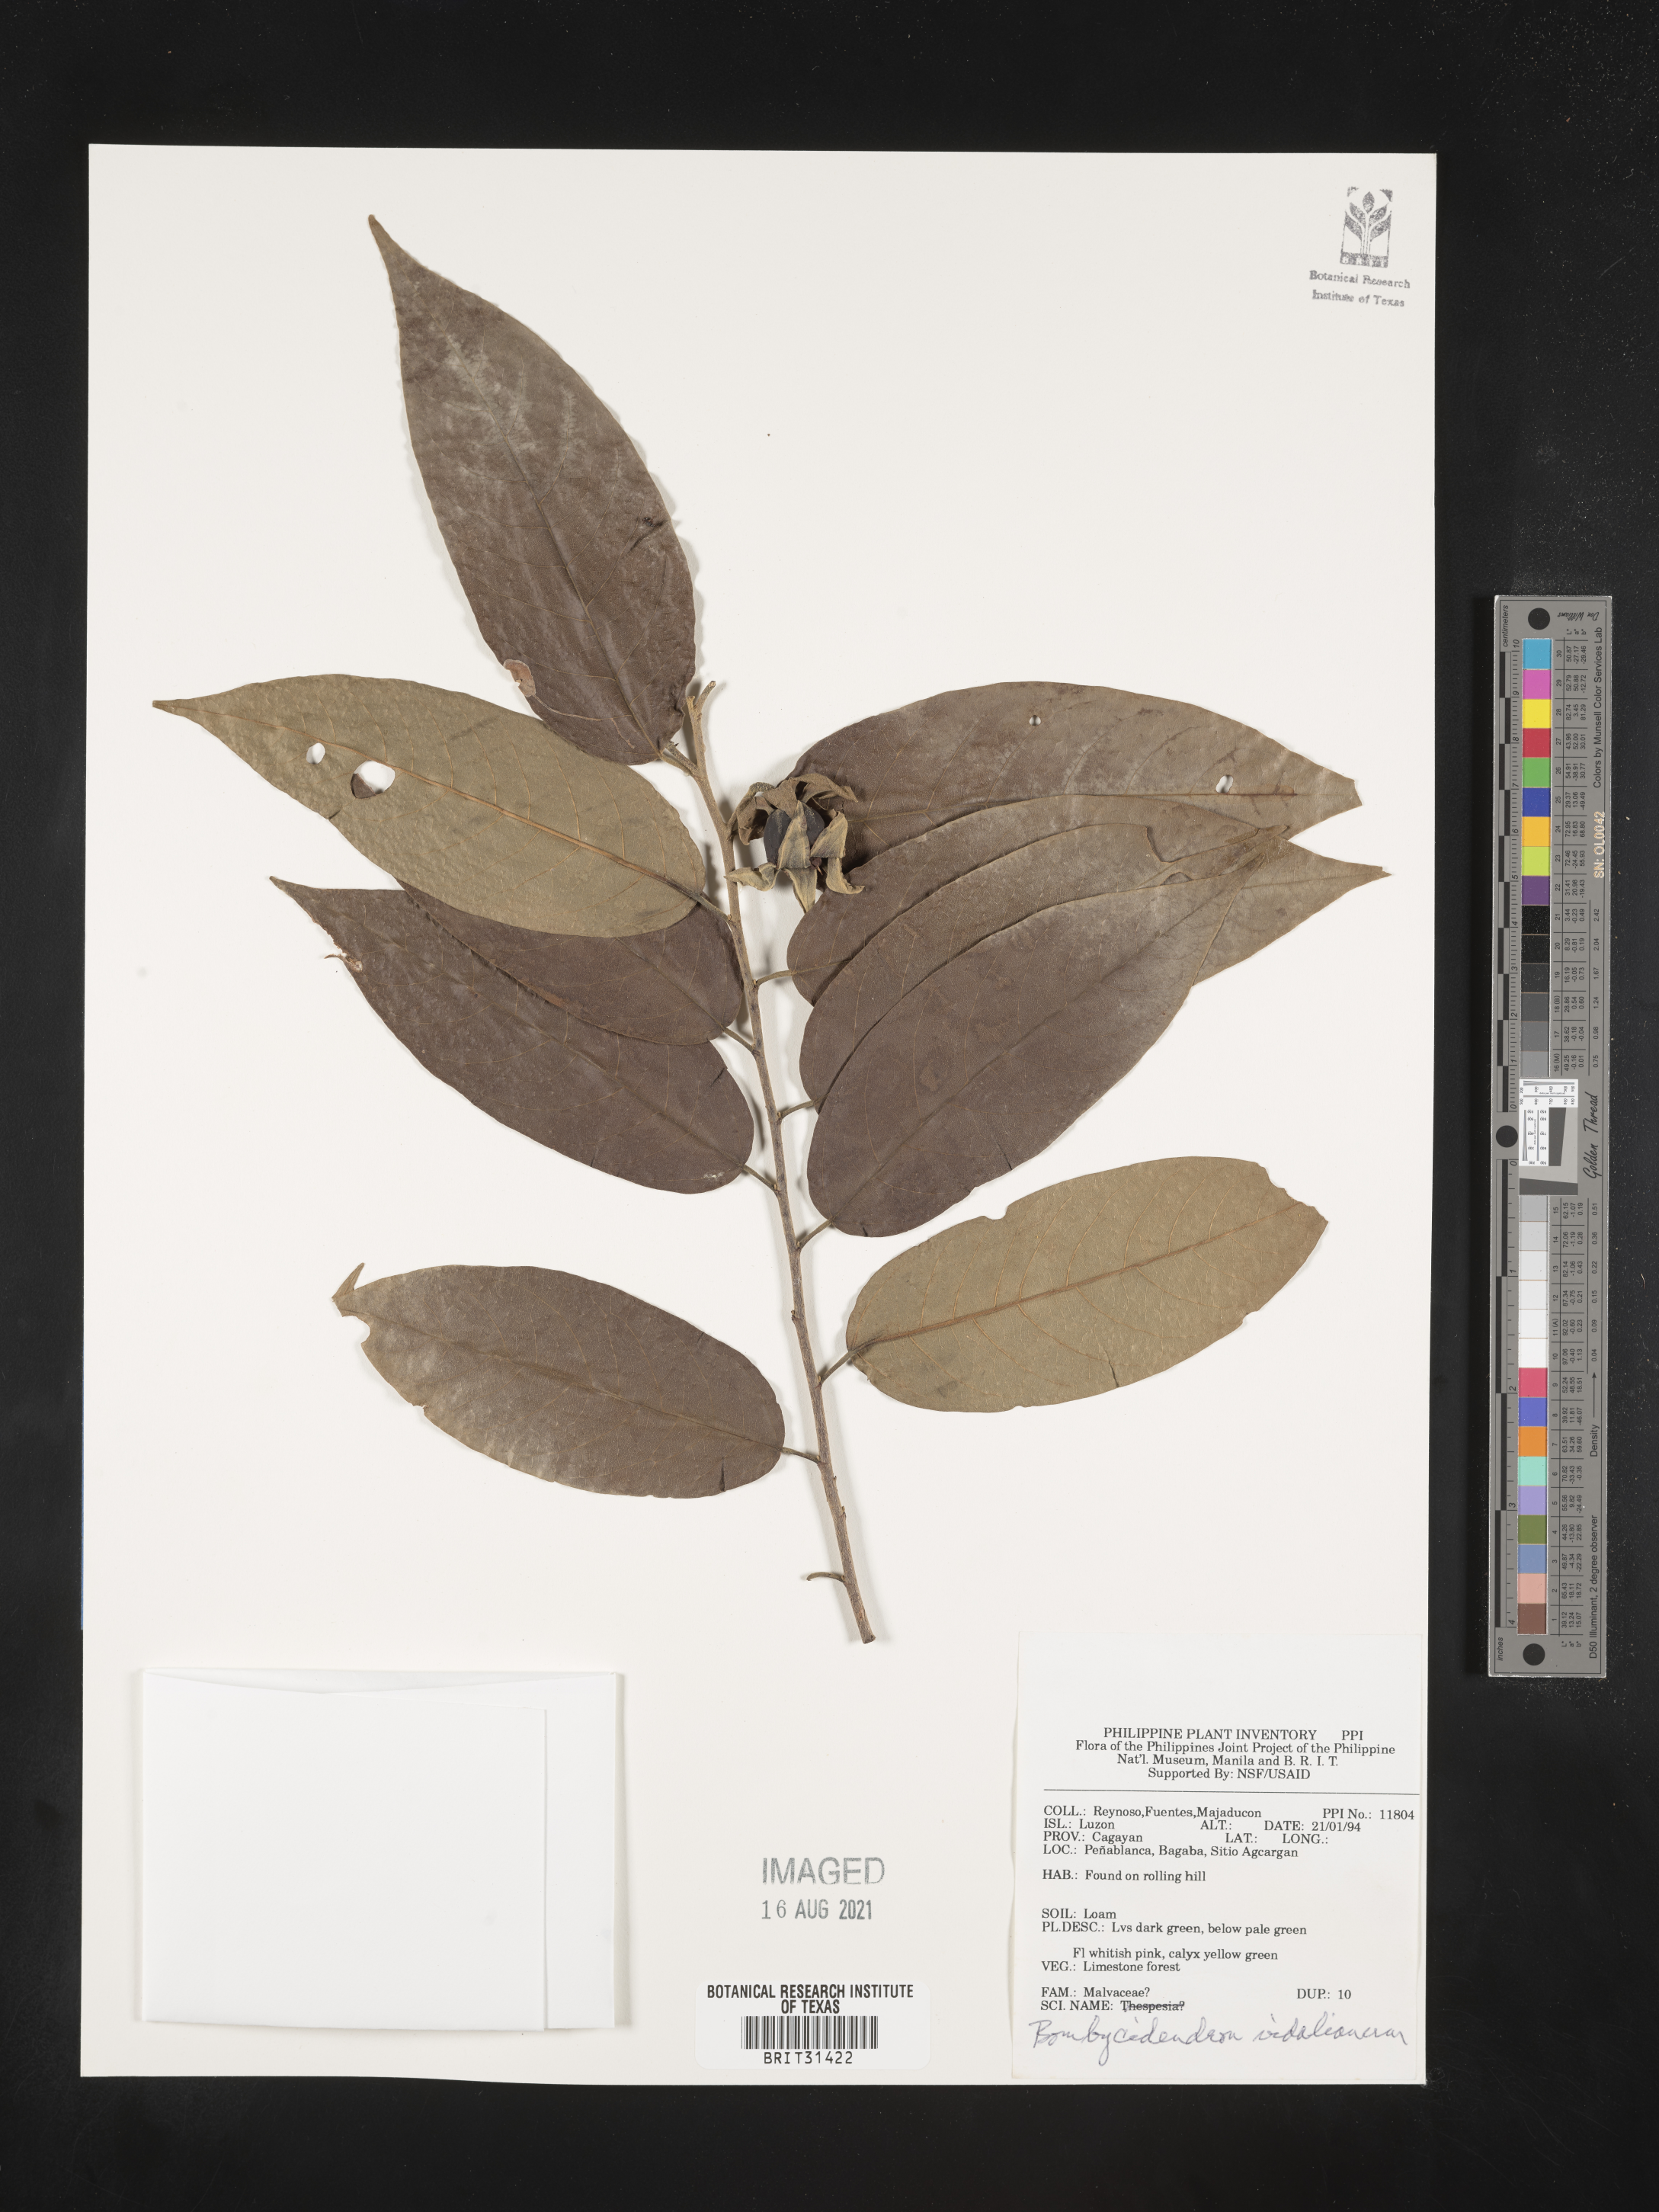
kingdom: Plantae
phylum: Tracheophyta
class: Magnoliopsida
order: Malvales
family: Malvaceae
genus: Hibiscus
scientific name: Hibiscus campylosiphon
